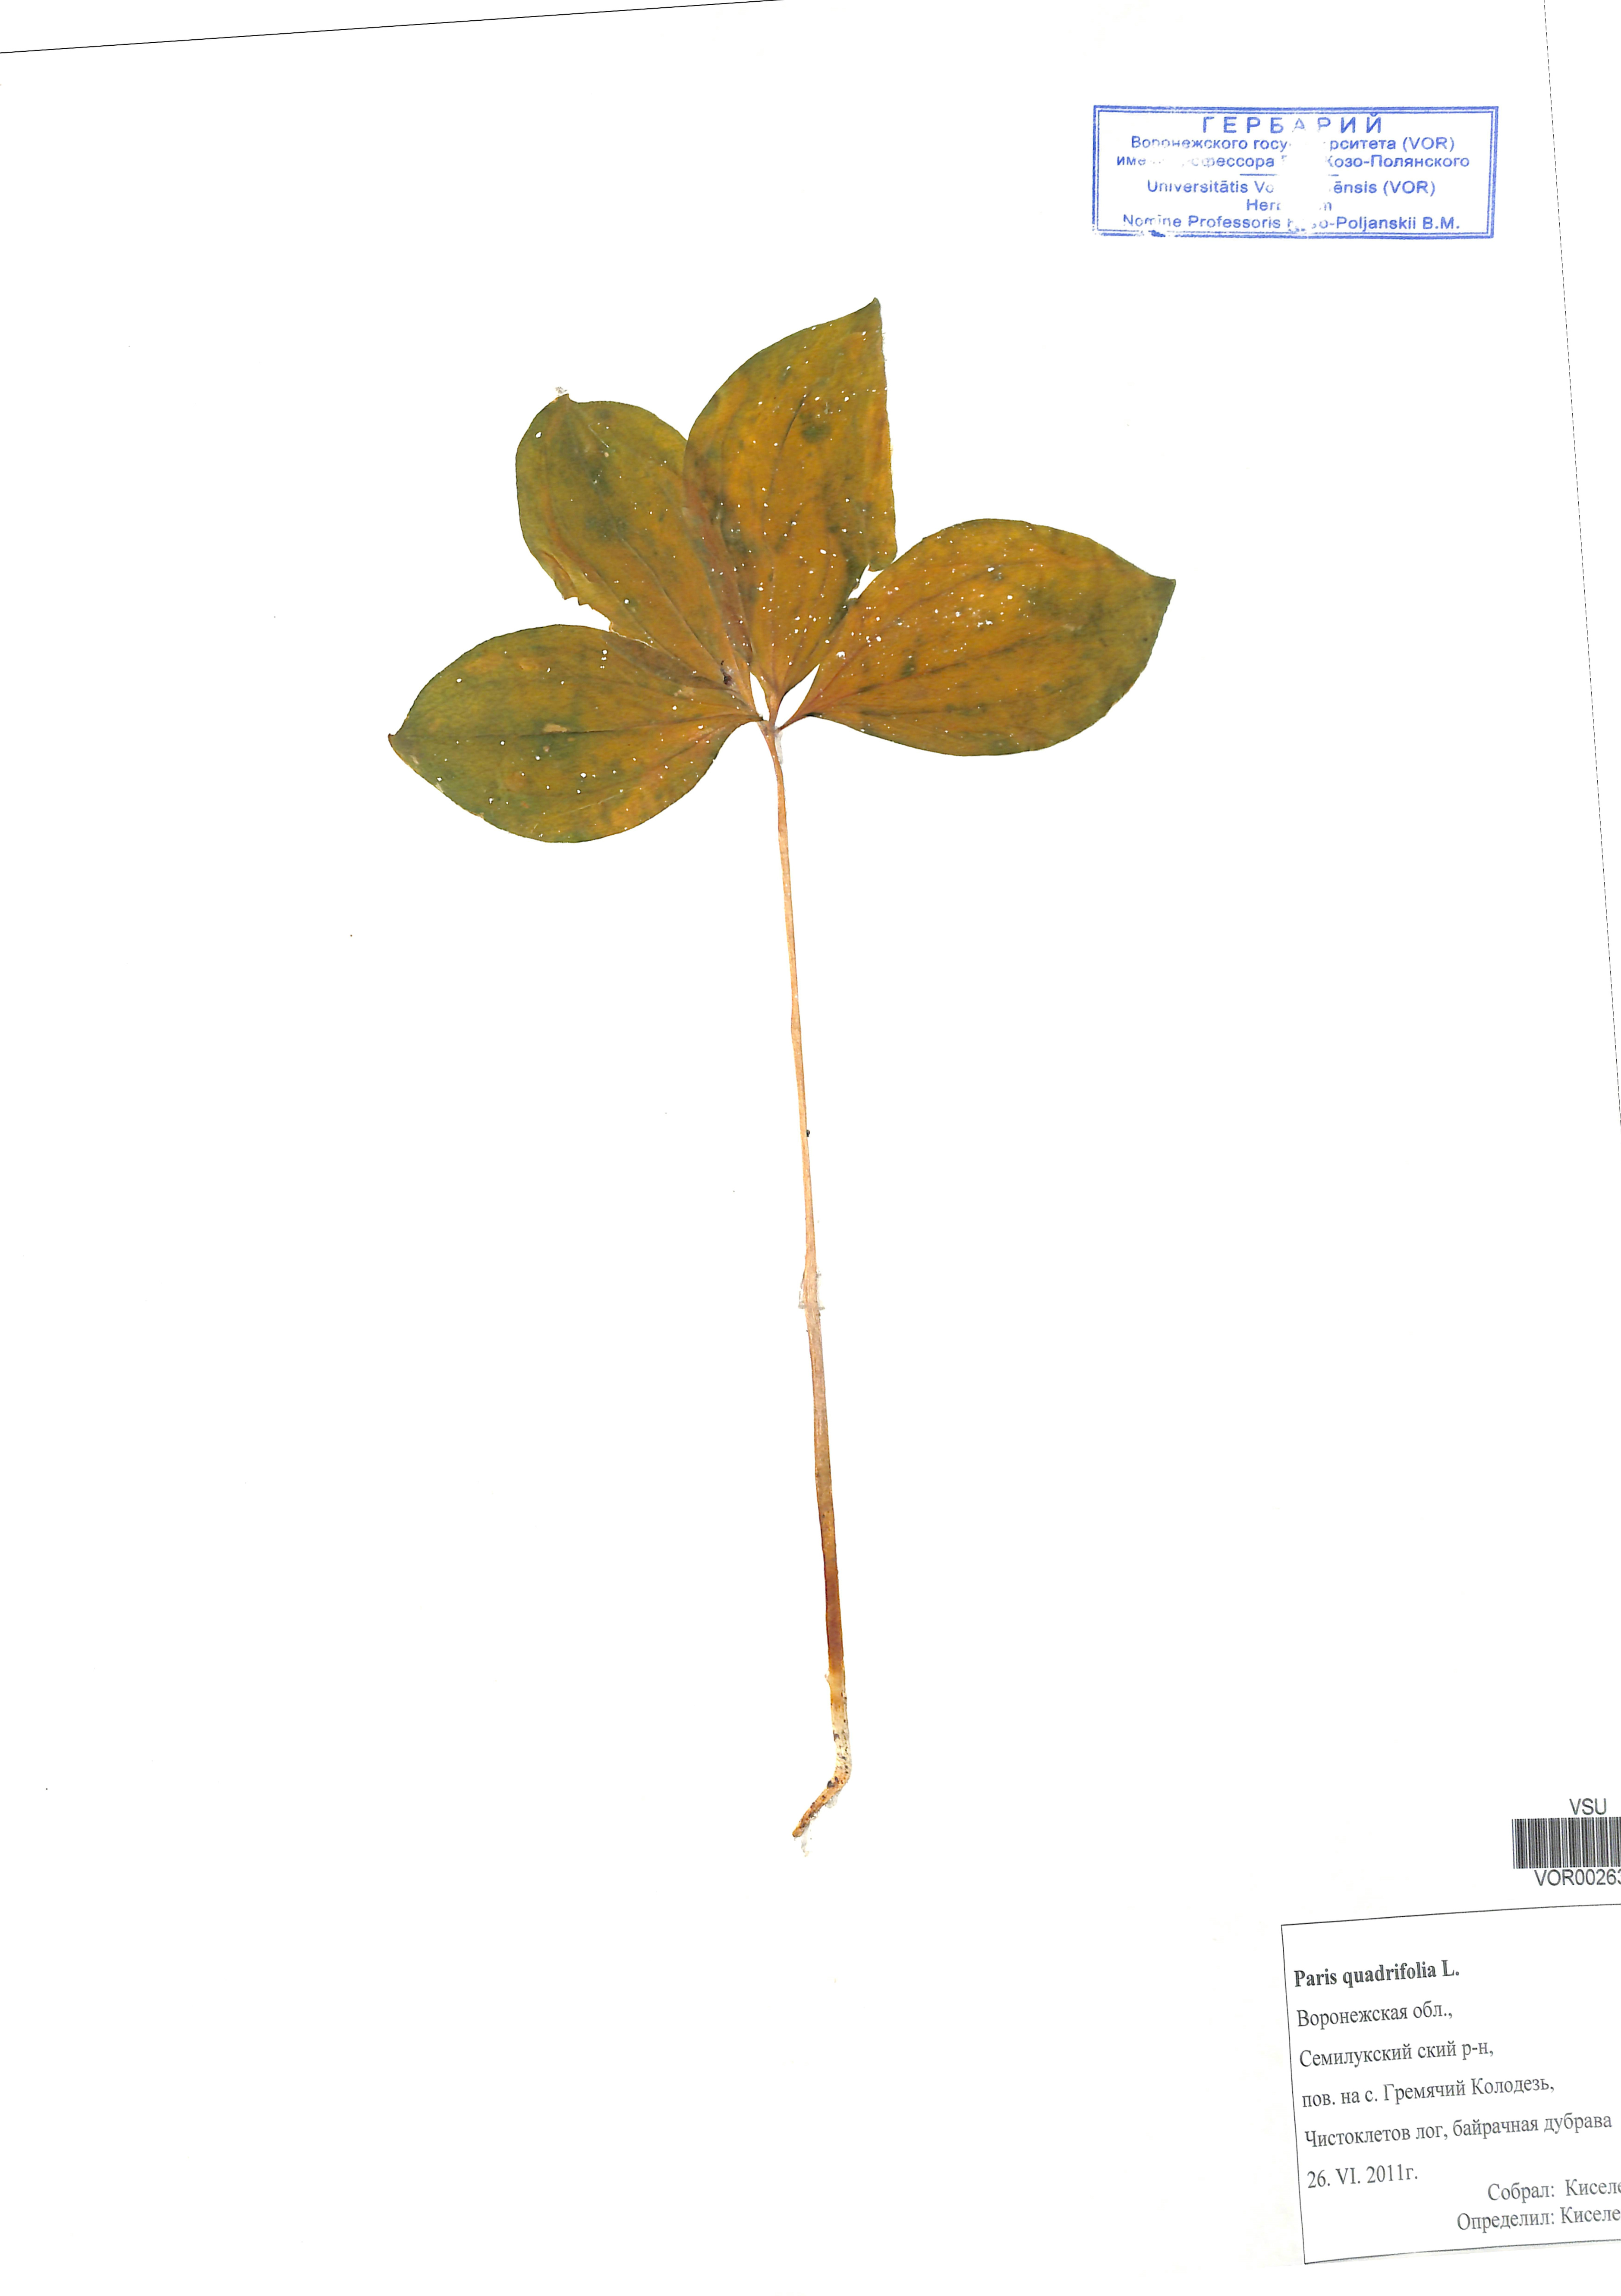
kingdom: Plantae
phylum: Tracheophyta
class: Liliopsida
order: Liliales
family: Melanthiaceae
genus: Paris
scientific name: Paris quadrifolia
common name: Herb-paris
